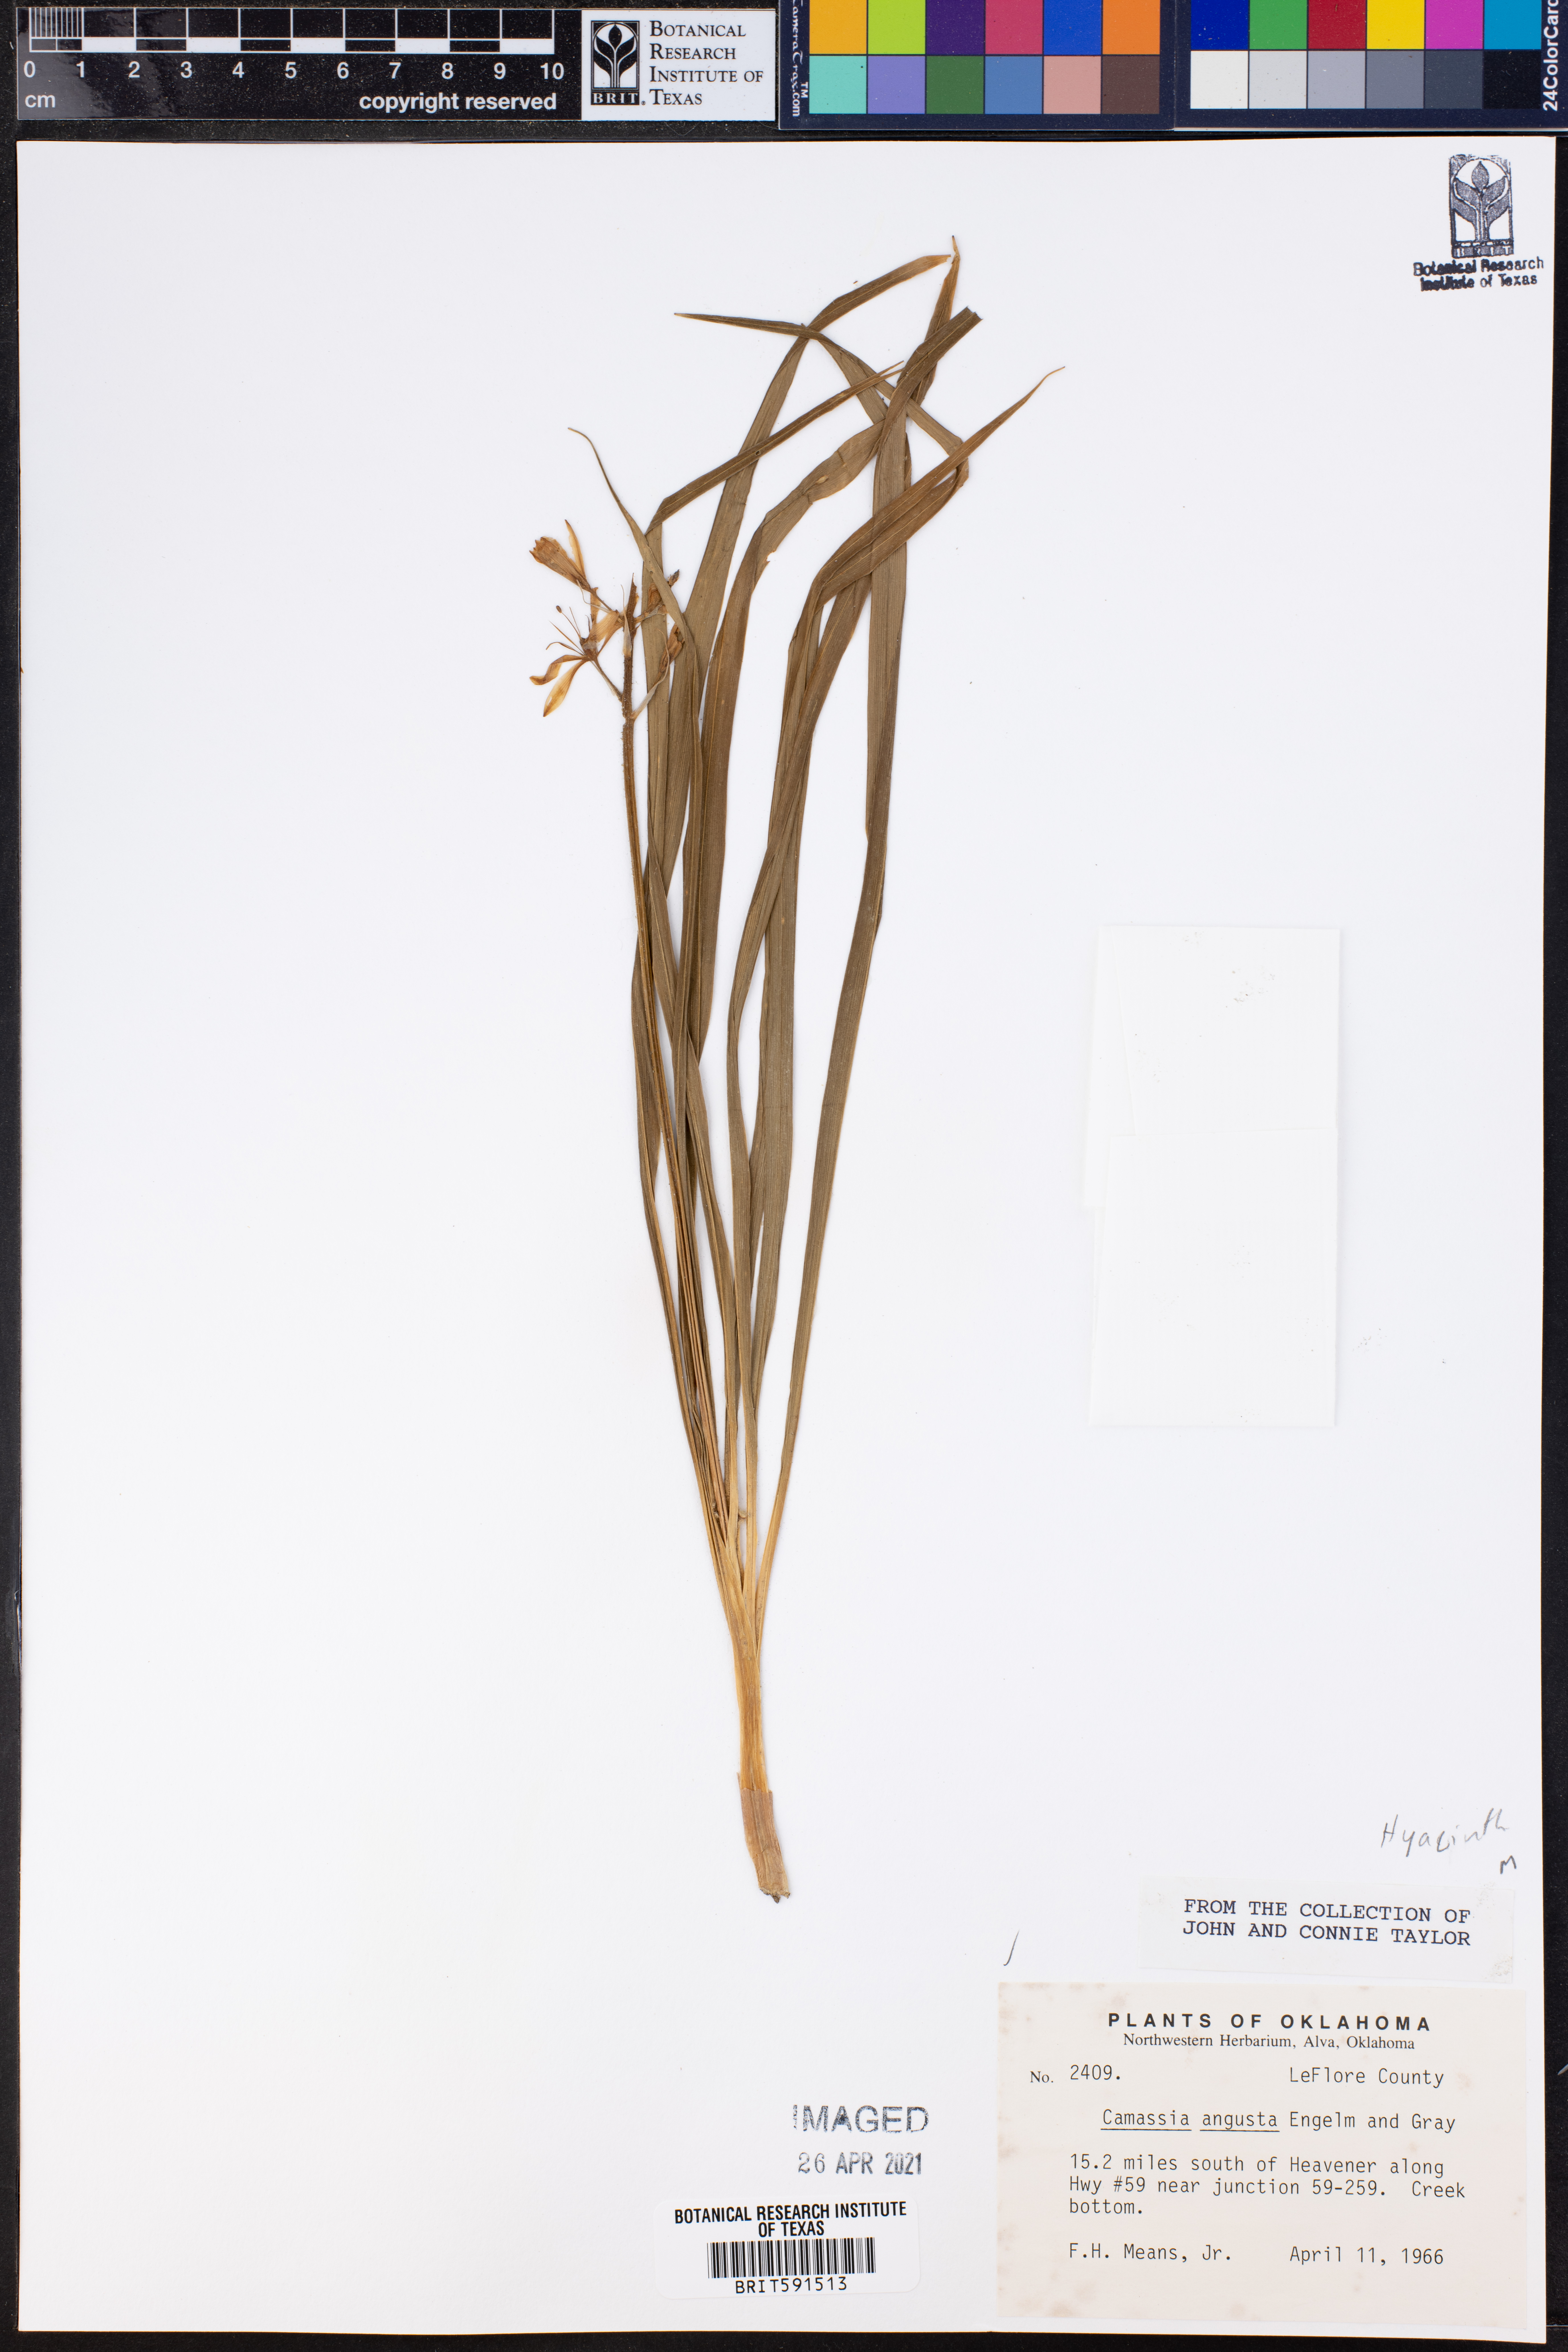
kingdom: Plantae
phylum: Tracheophyta
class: Liliopsida
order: Asparagales
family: Asparagaceae
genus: Camassia
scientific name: Camassia angusta
